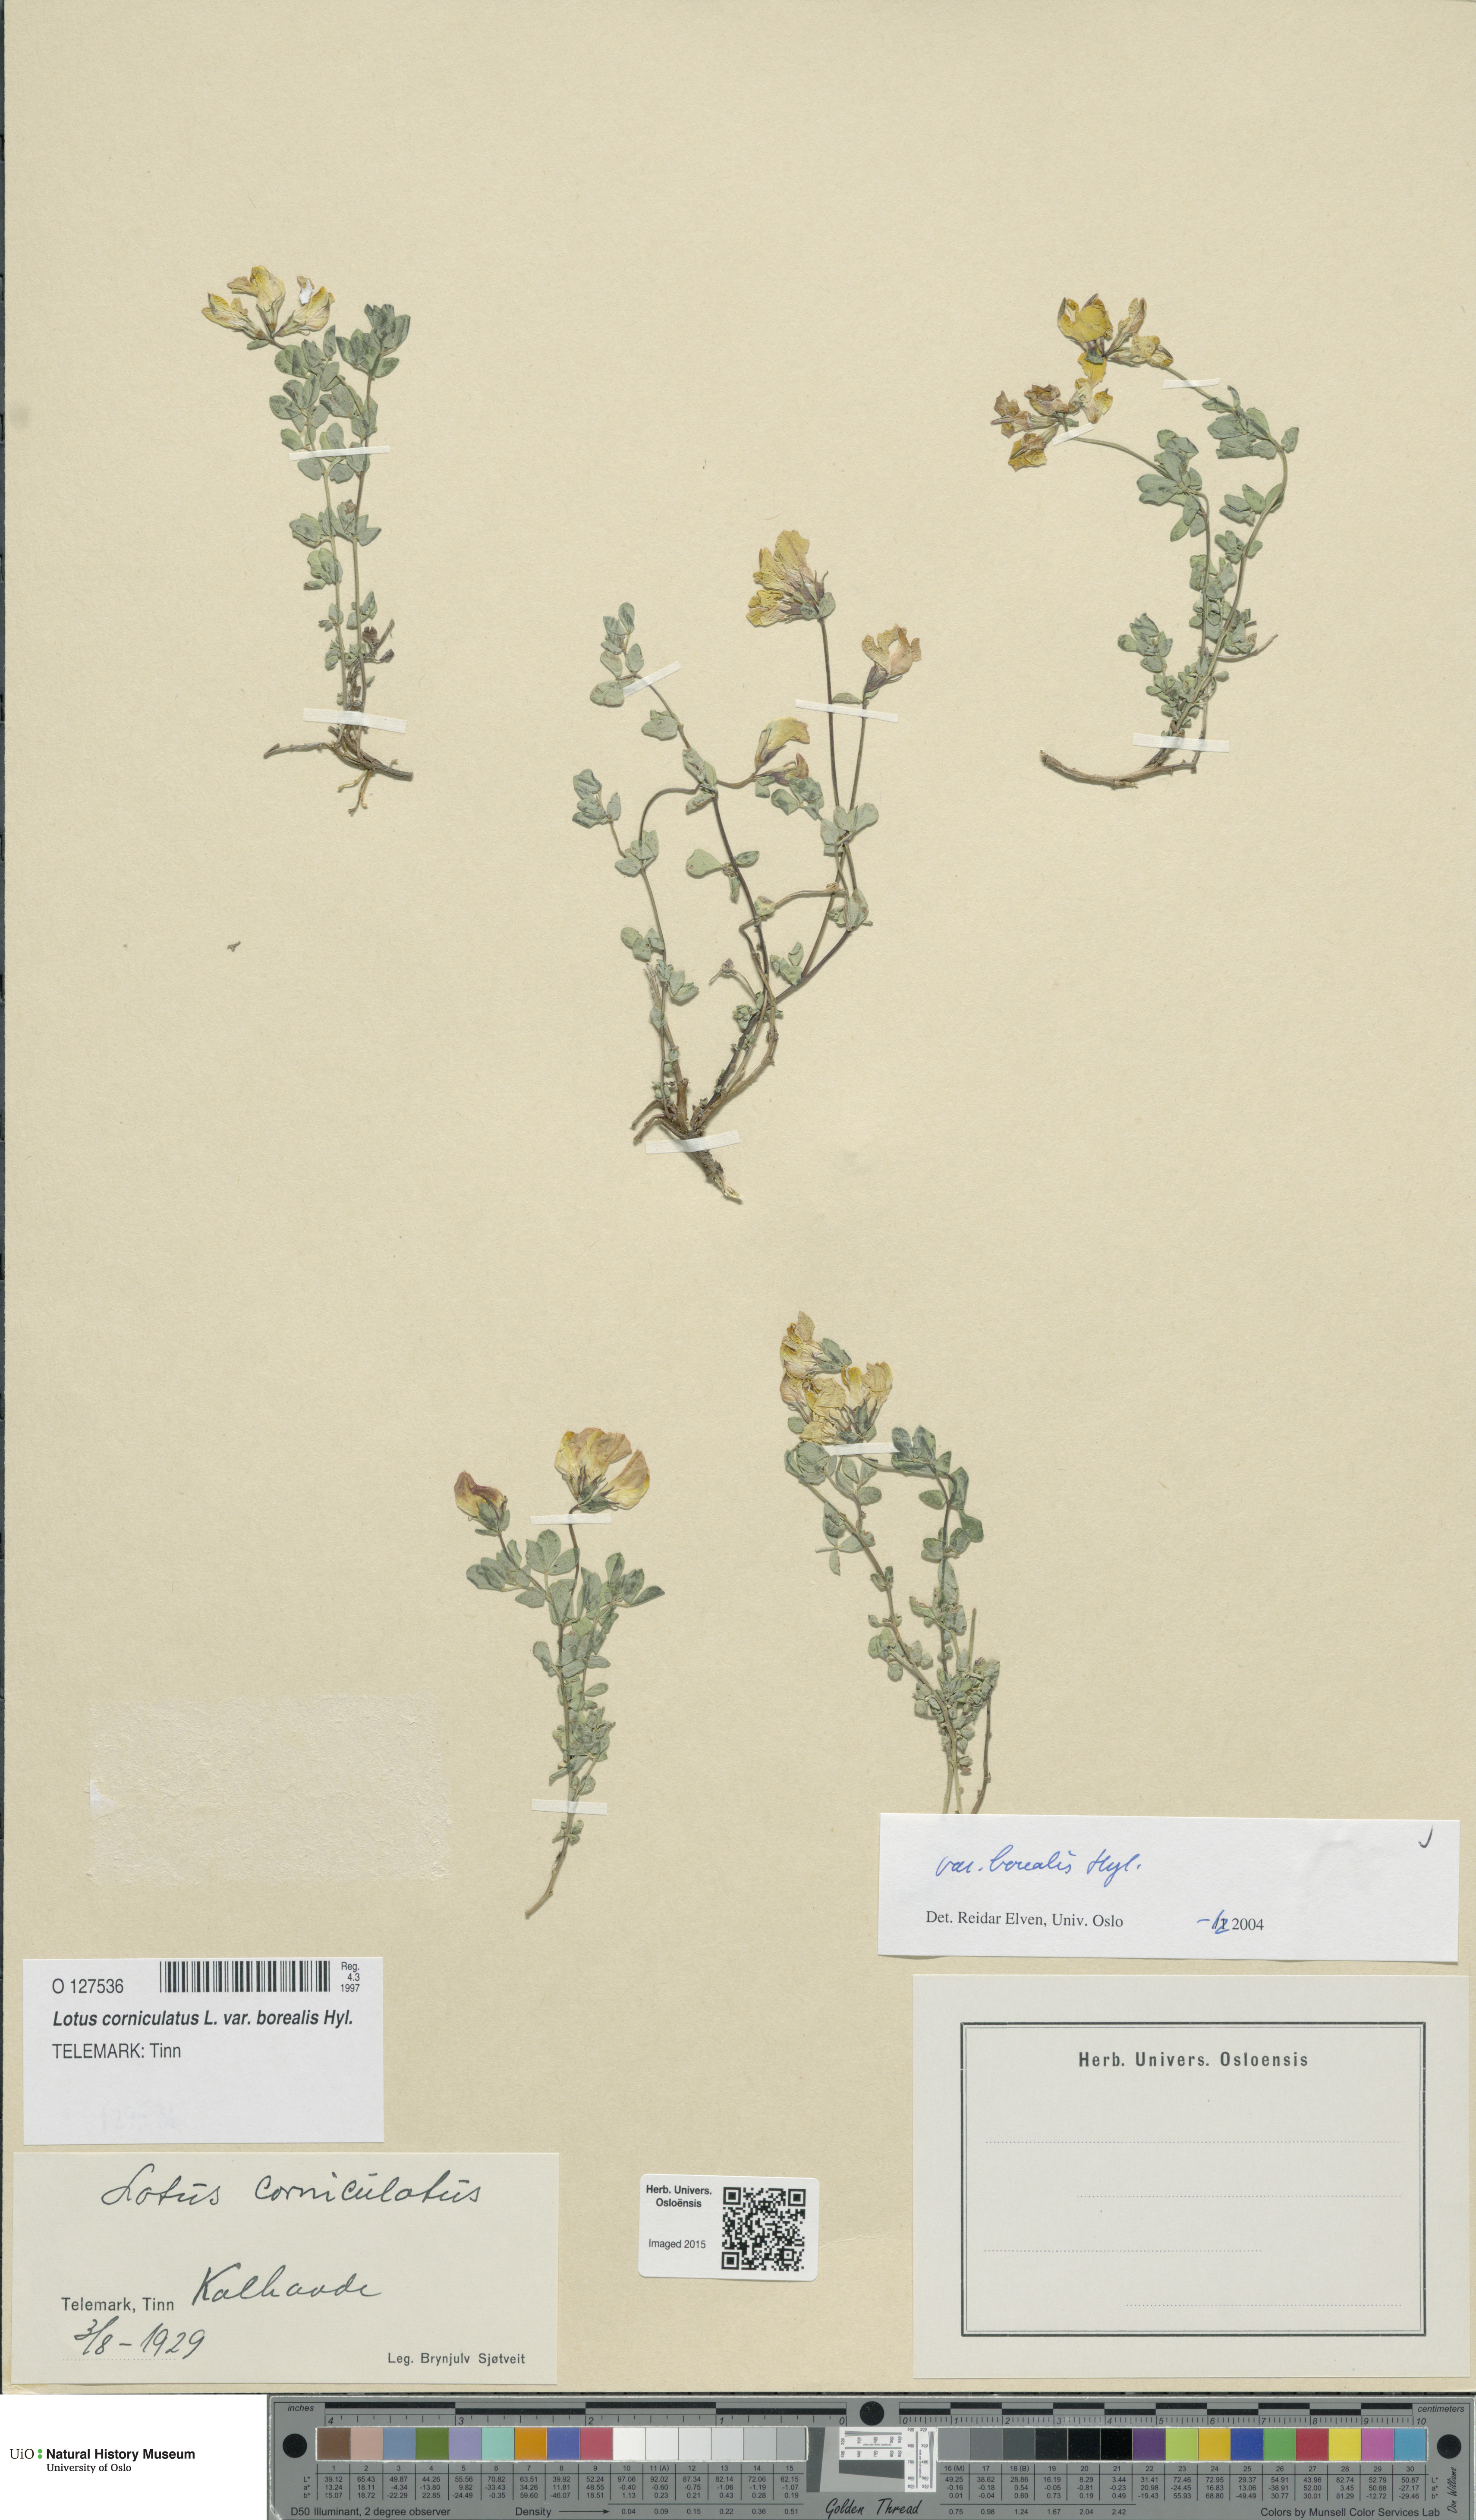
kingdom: Plantae
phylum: Tracheophyta
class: Magnoliopsida
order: Fabales
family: Fabaceae
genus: Lotus
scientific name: Lotus corniculatus
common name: Common bird's-foot-trefoil
